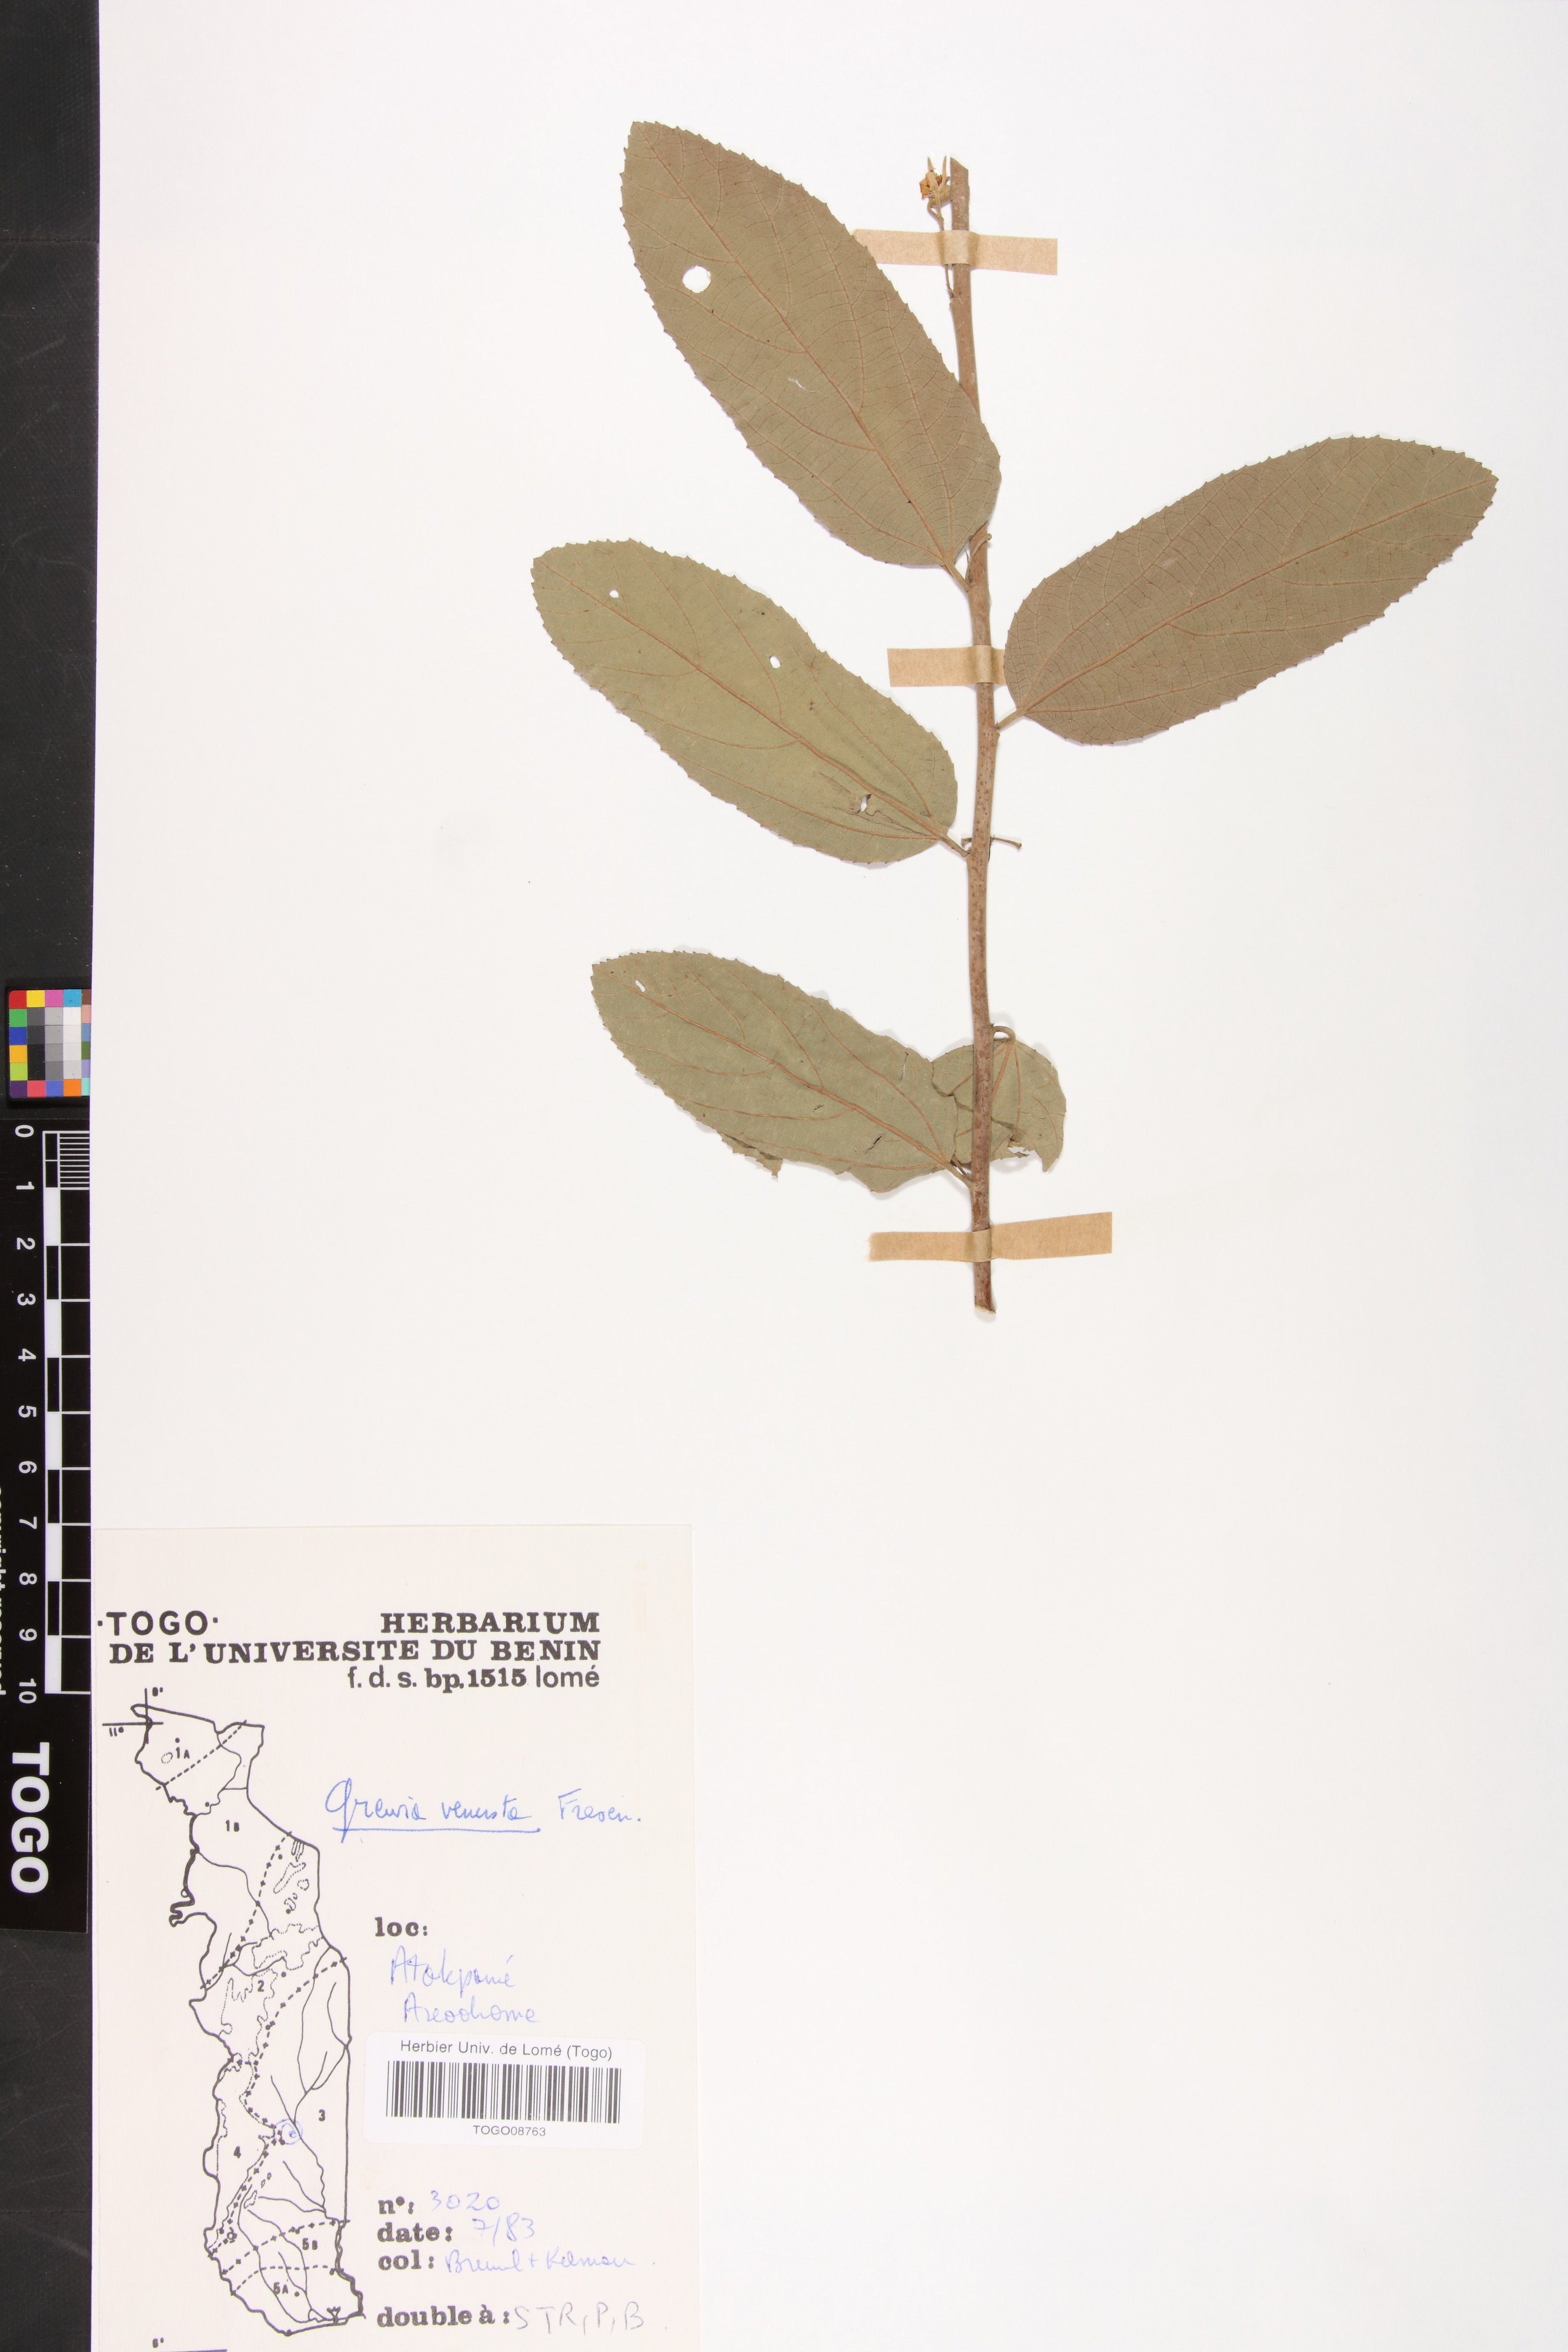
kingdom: Plantae
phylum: Tracheophyta
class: Magnoliopsida
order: Malvales
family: Malvaceae
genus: Grewia
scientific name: Grewia mollis
